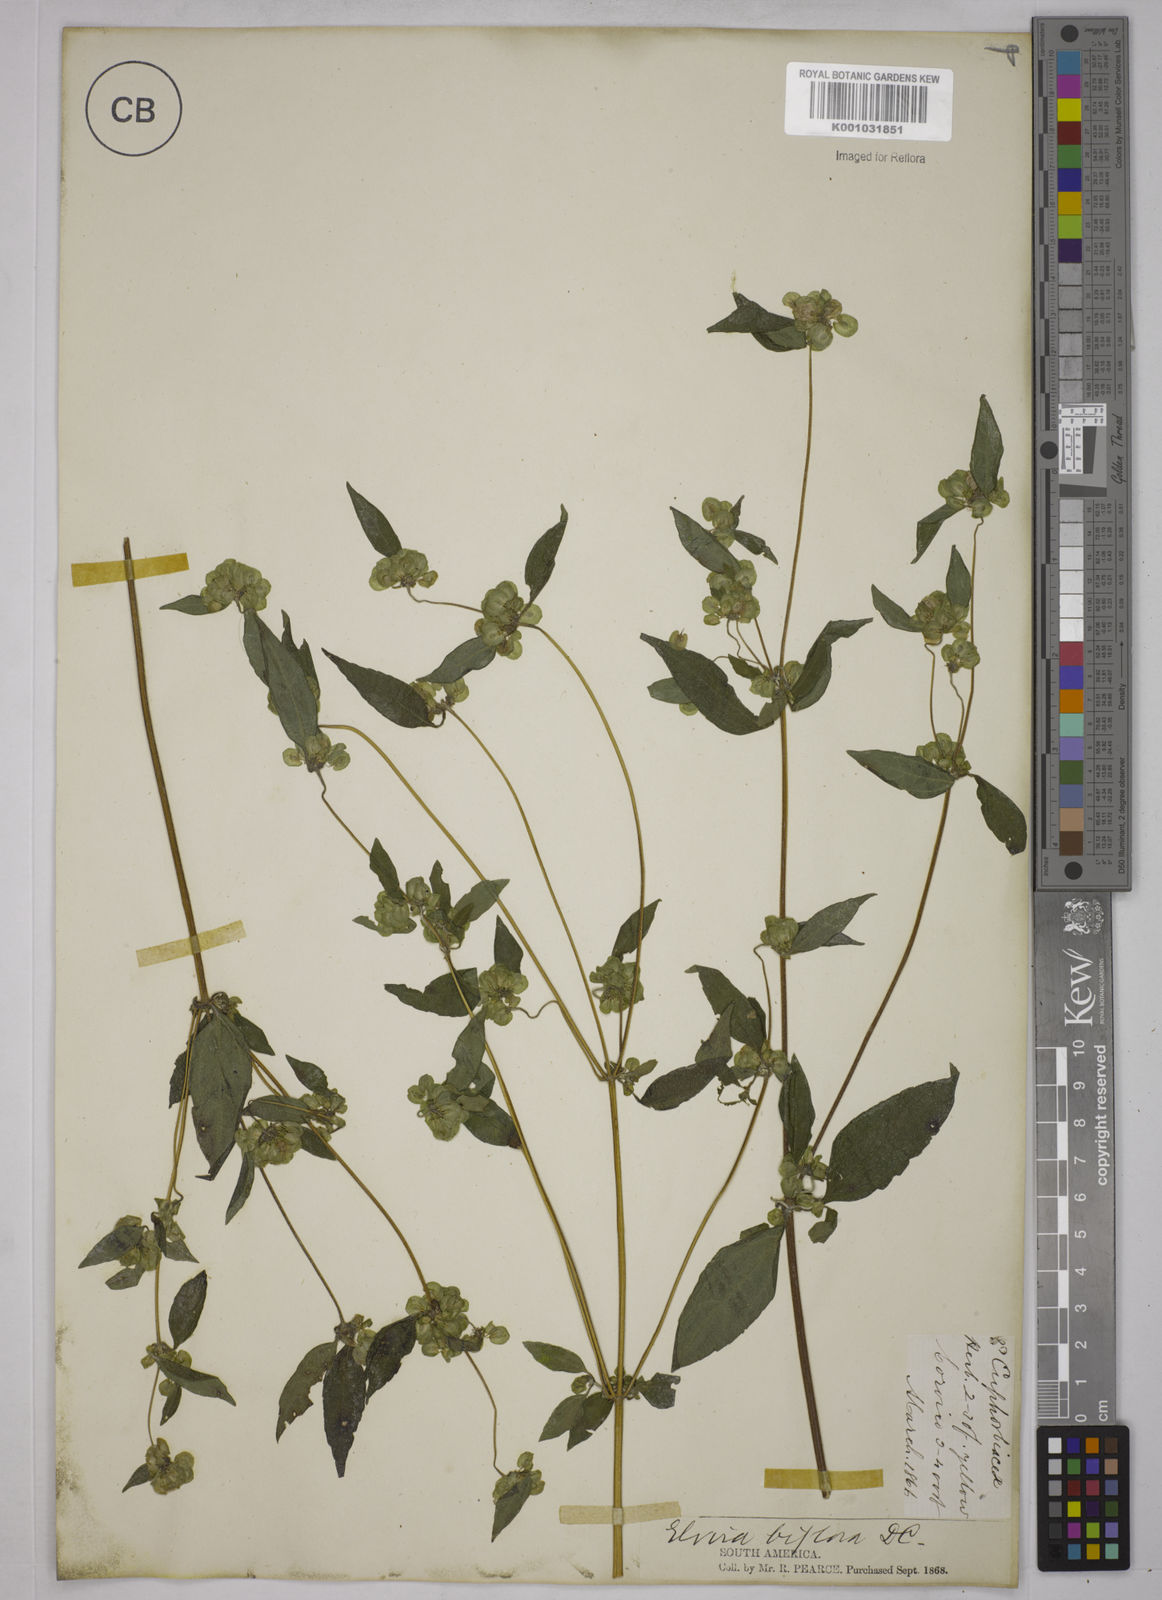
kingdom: Plantae
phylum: Tracheophyta
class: Magnoliopsida
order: Asterales
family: Asteraceae
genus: Delilia
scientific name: Delilia biflora
